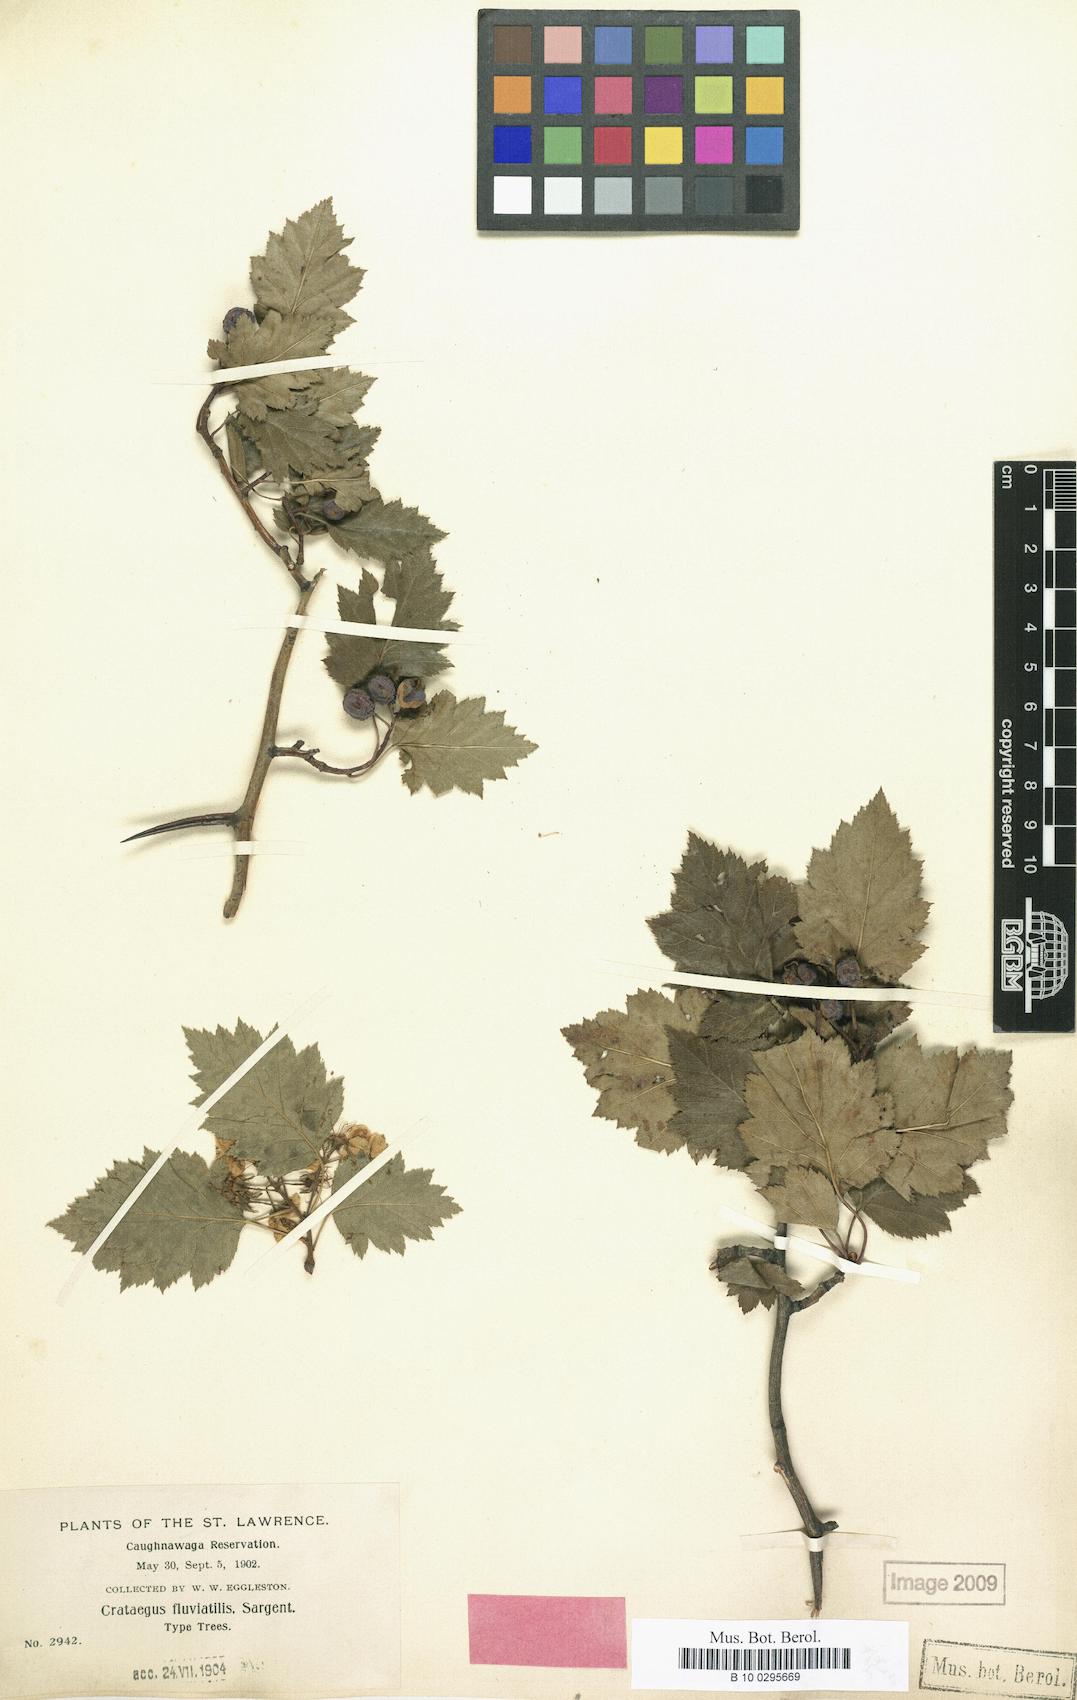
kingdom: Plantae
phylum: Tracheophyta
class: Magnoliopsida
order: Rosales
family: Rosaceae
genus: Crataegus
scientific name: Crataegus fluviatilis
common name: Fort sheridan hawthorn
